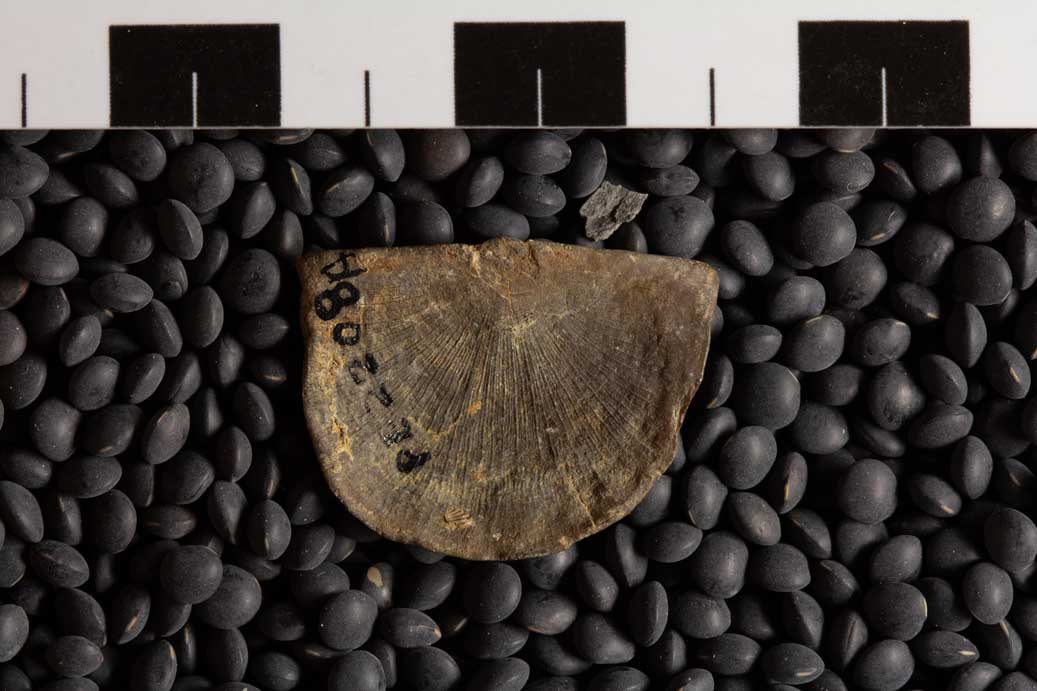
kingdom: Animalia
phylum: Brachiopoda
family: Strophomenidae
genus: Strophomena
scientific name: Strophomena
